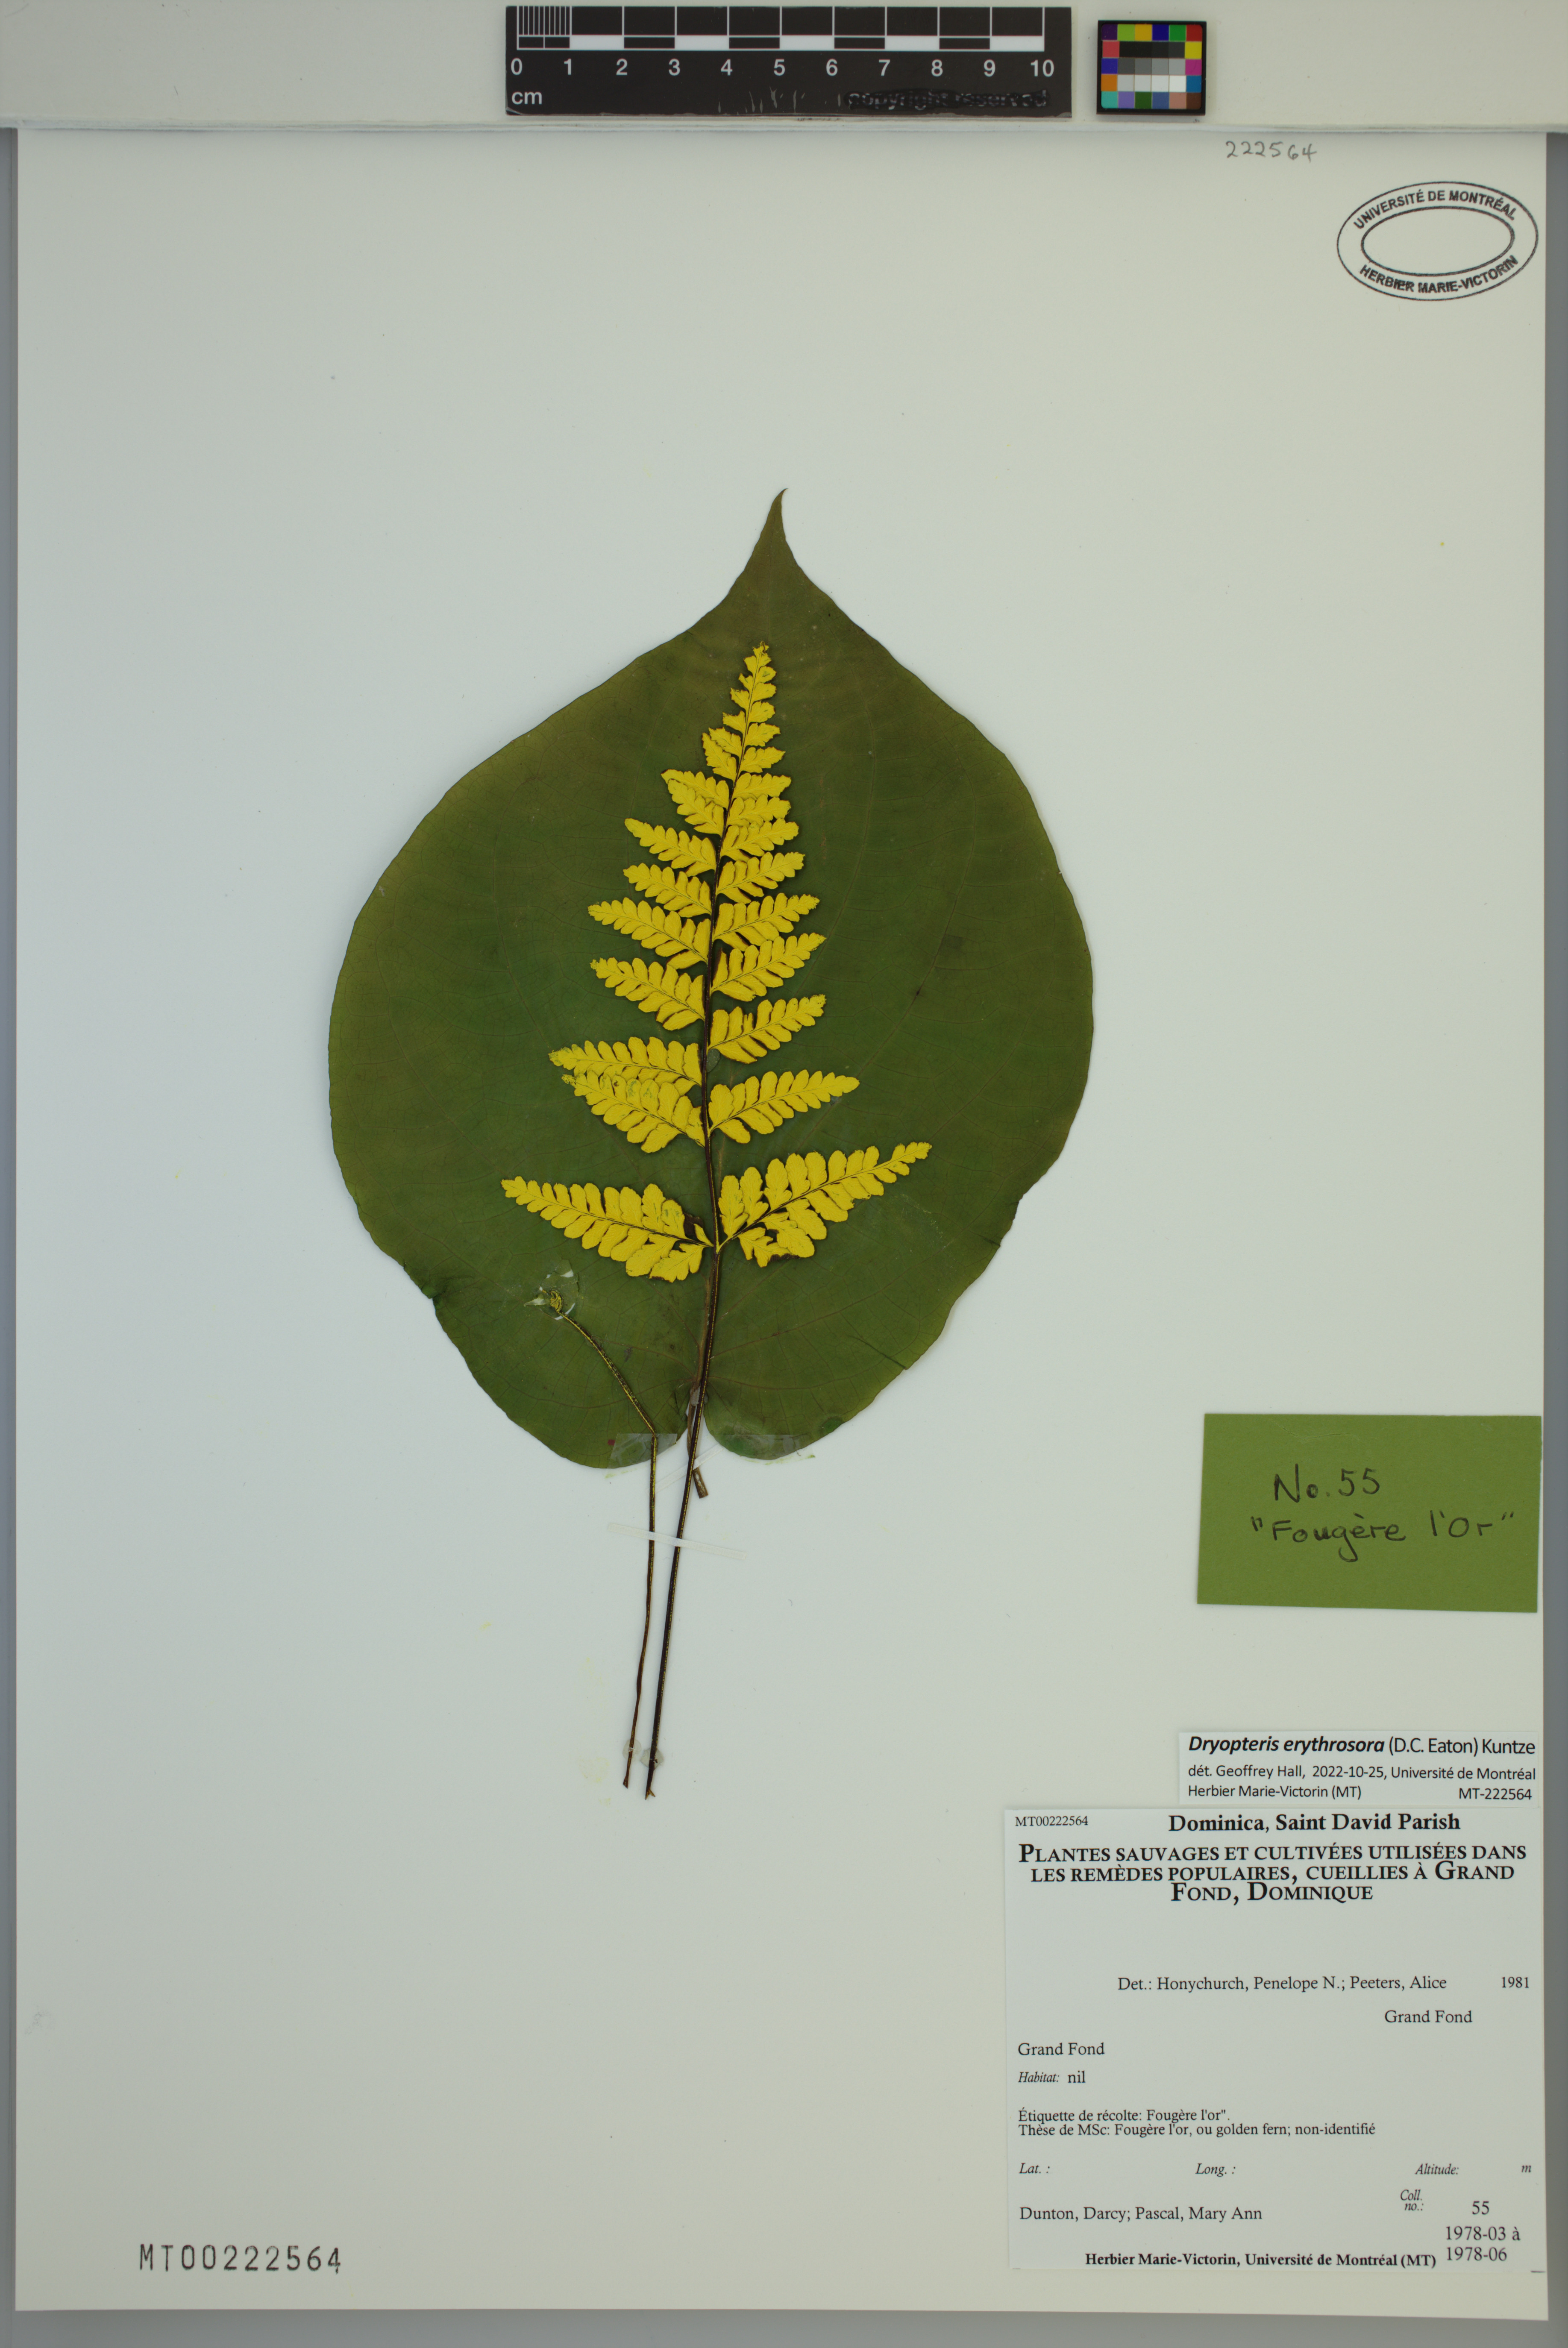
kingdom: Plantae
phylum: Tracheophyta
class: Polypodiopsida
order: Polypodiales
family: Dryopteridaceae
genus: Dryopteris
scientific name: Dryopteris erythrosora
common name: Autumn fern
